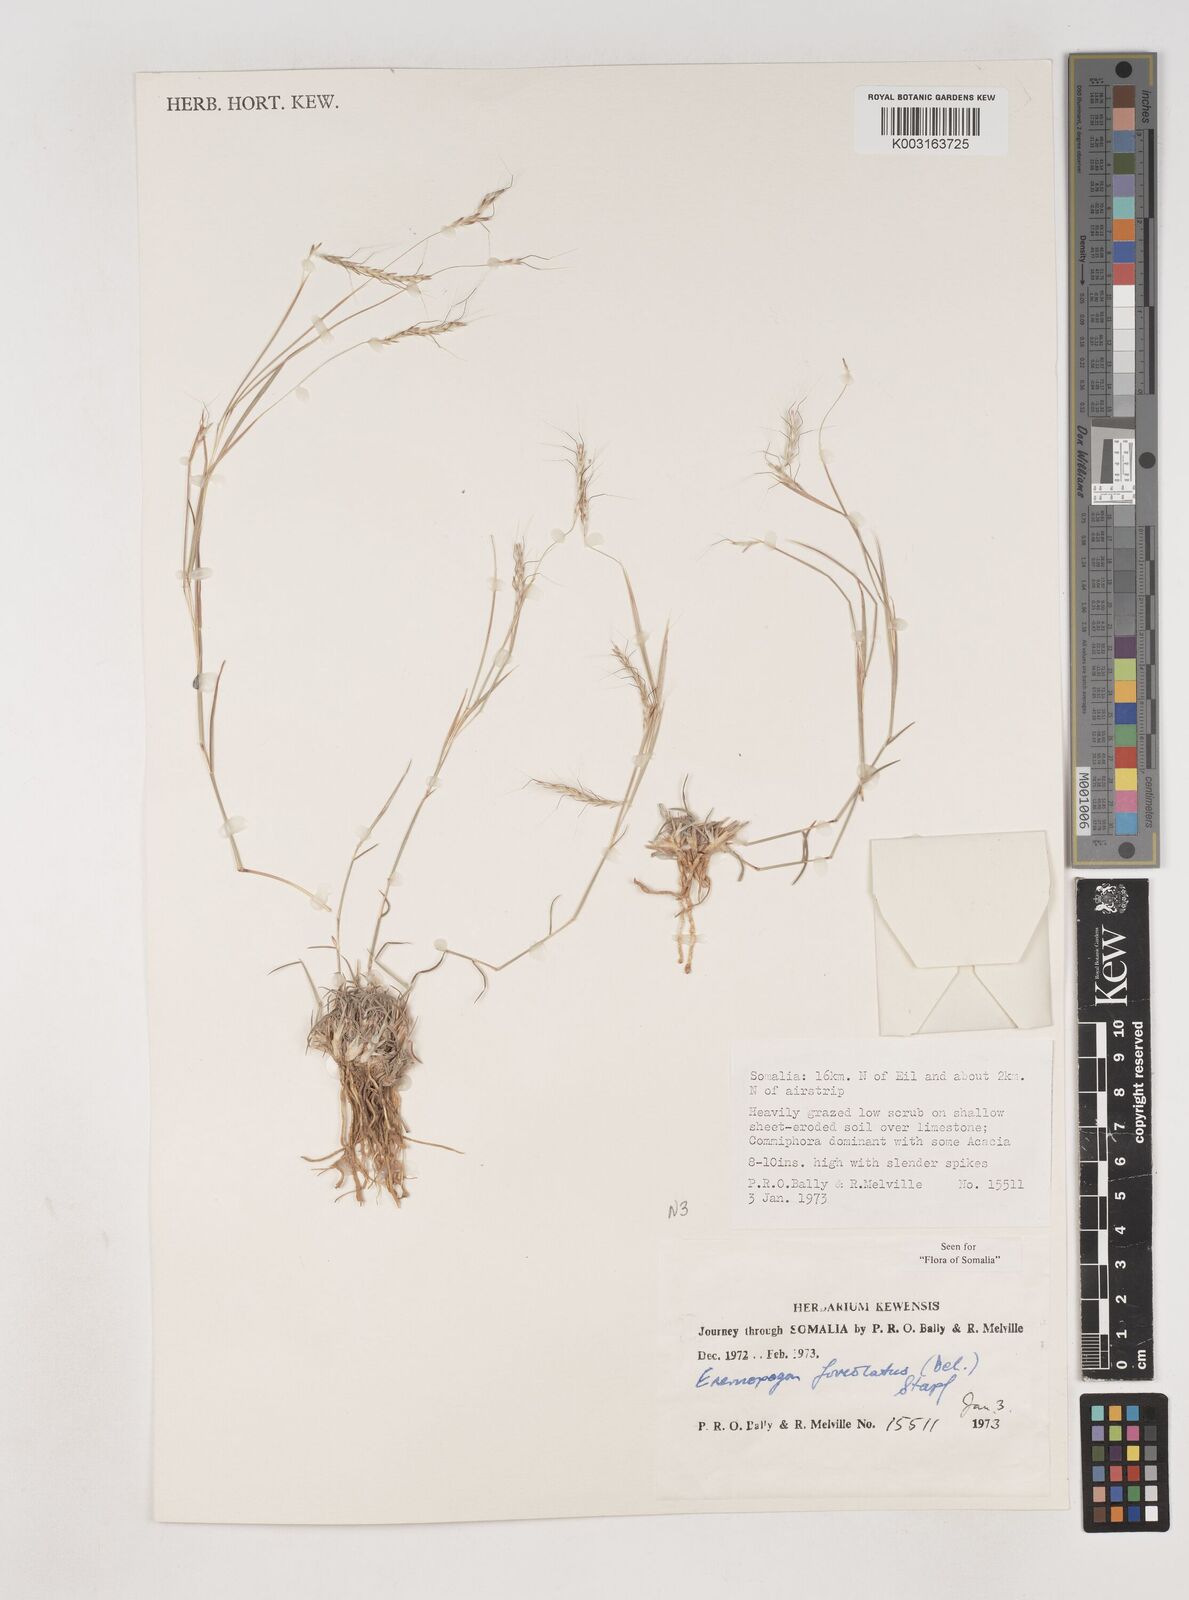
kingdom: Plantae
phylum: Tracheophyta
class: Liliopsida
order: Poales
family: Poaceae
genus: Dichanthium
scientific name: Dichanthium foveolatum
